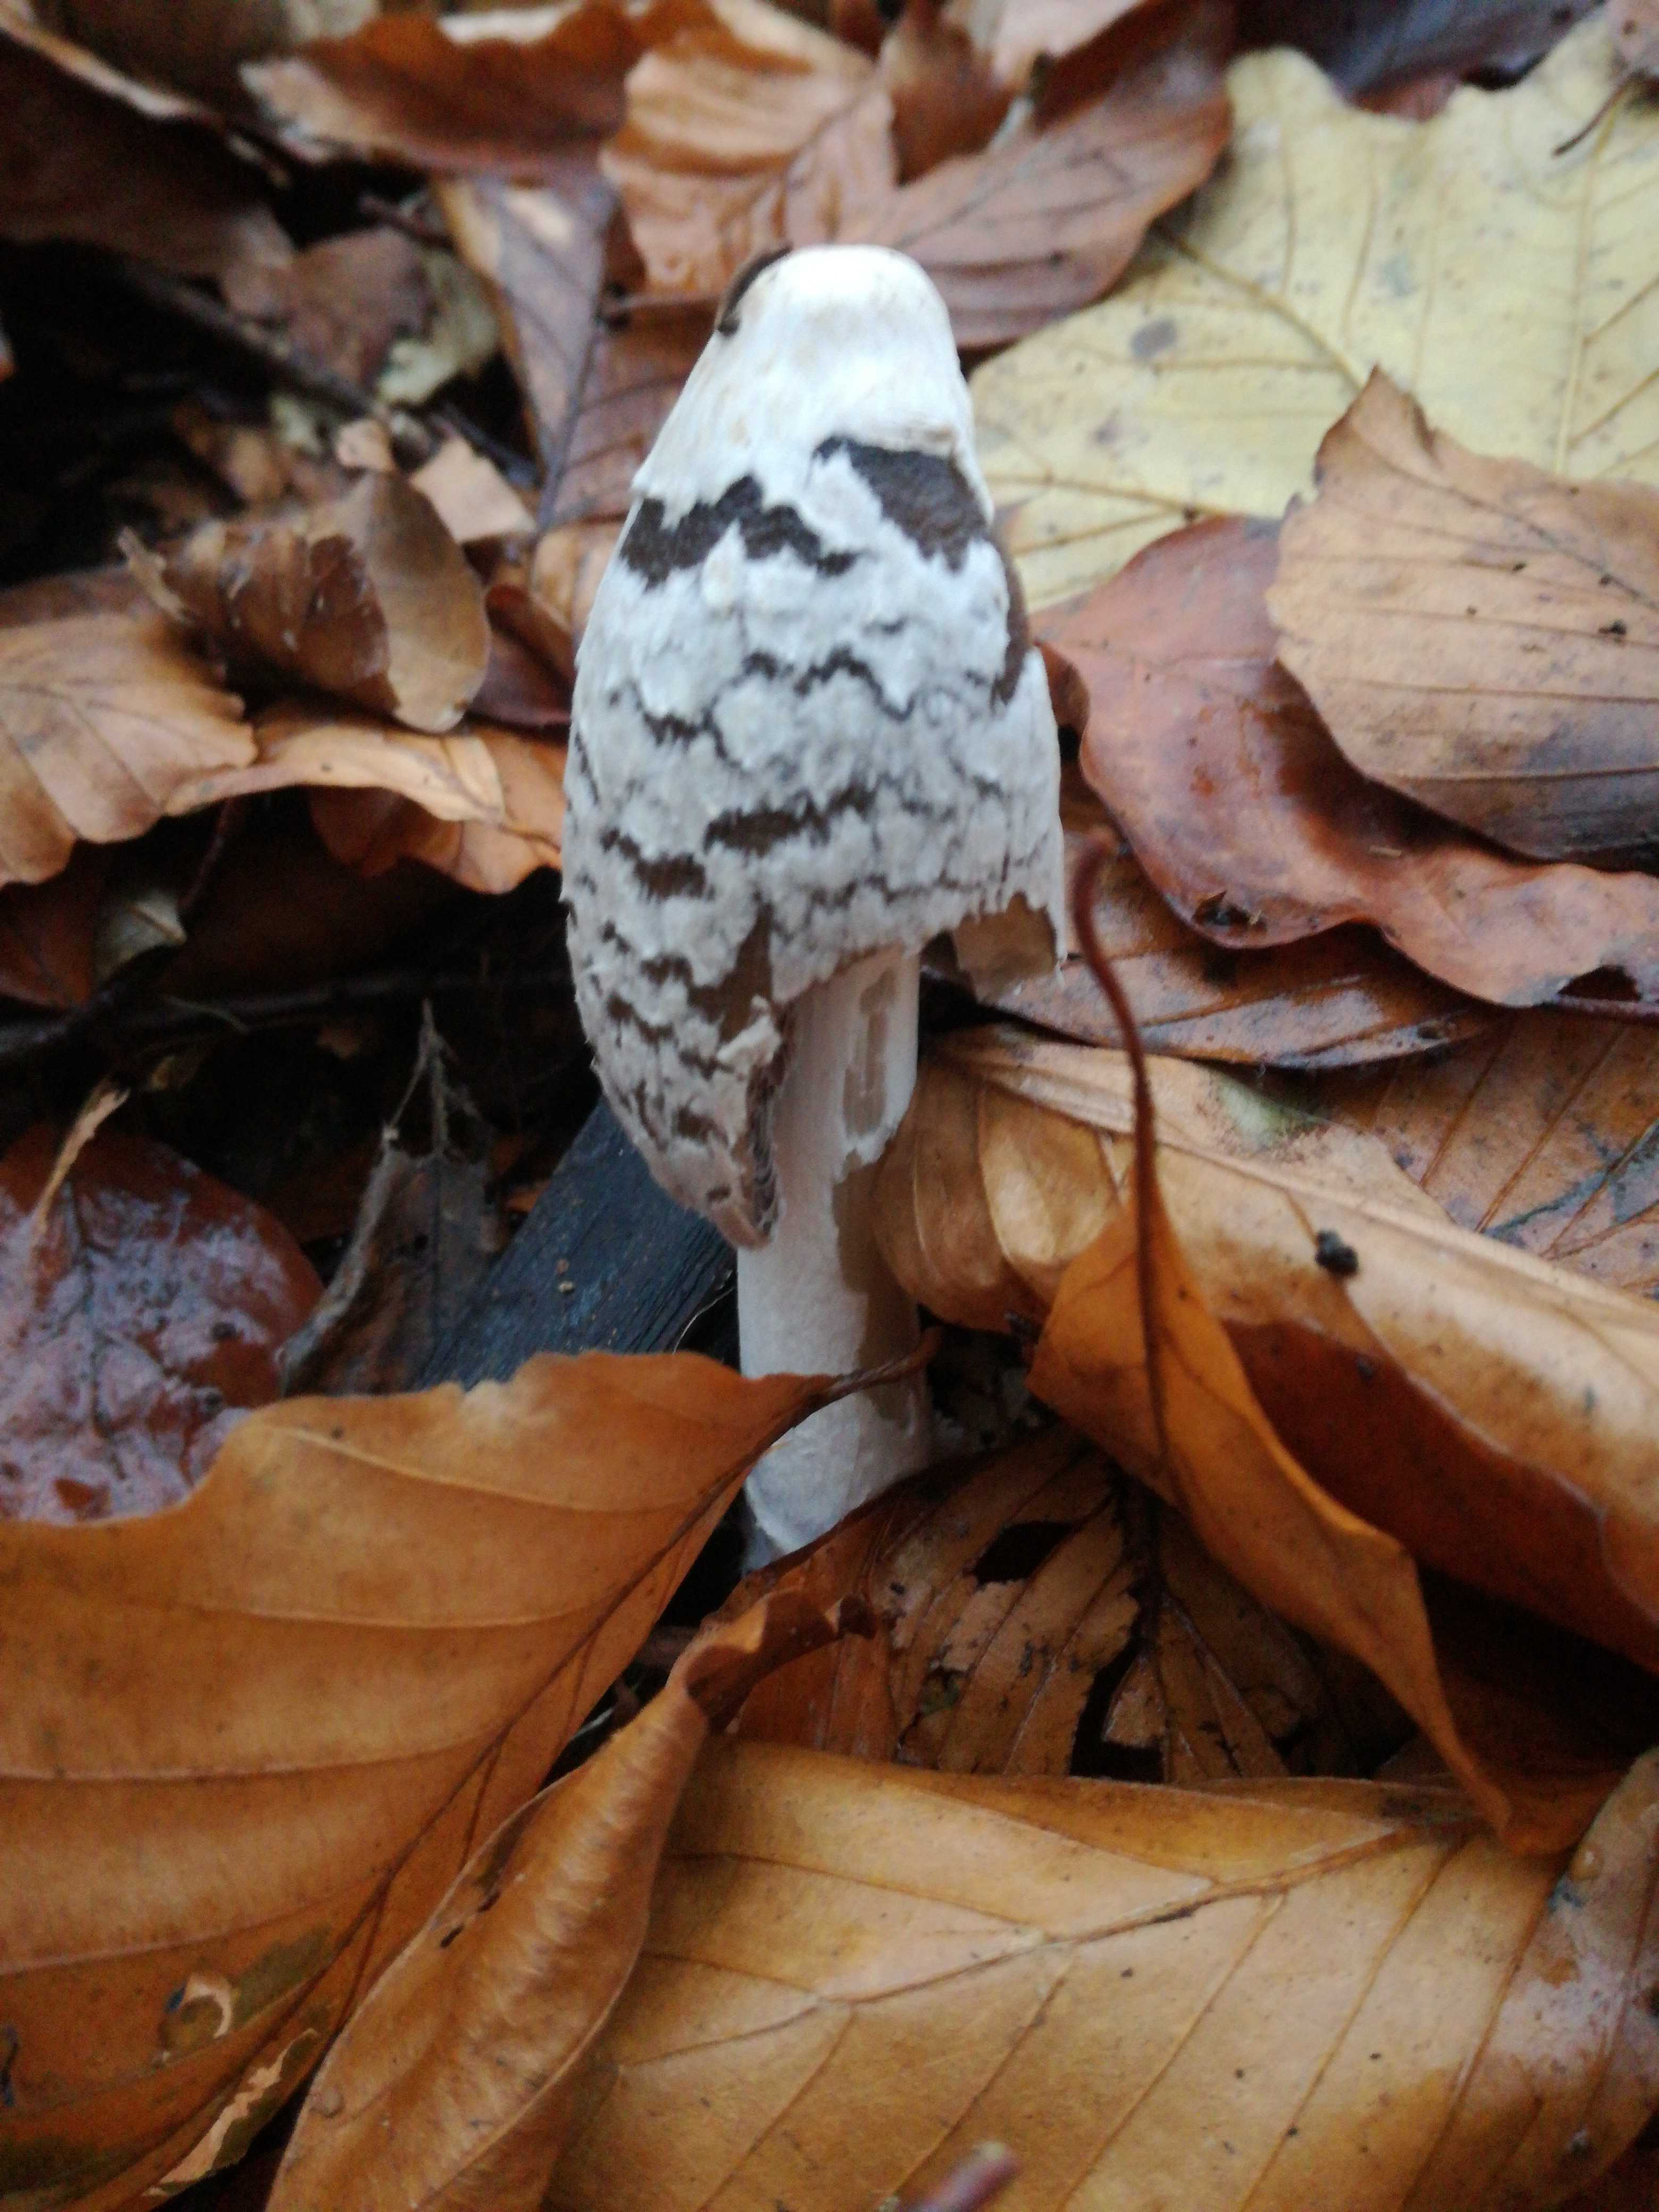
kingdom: Fungi
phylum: Basidiomycota
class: Agaricomycetes
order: Agaricales
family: Psathyrellaceae
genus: Coprinopsis
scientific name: Coprinopsis picacea
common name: skade-blækhat
